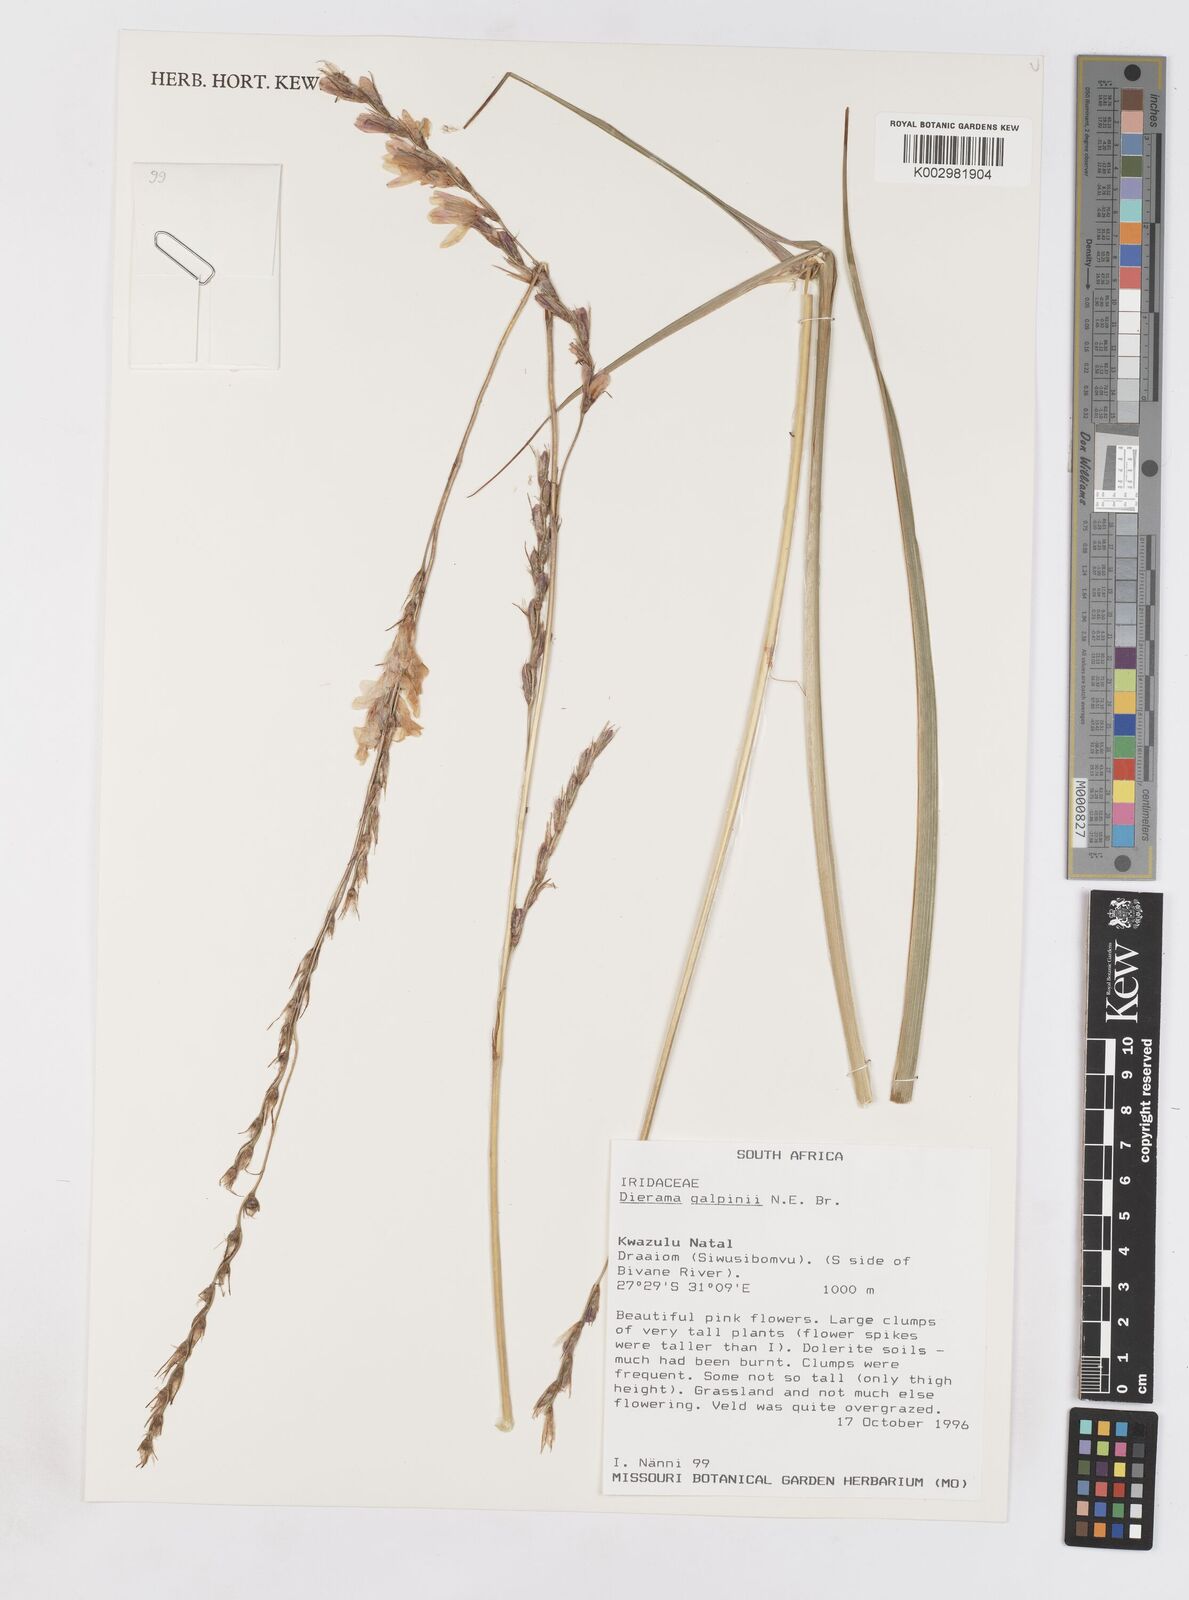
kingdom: Plantae
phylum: Tracheophyta
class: Liliopsida
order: Asparagales
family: Iridaceae
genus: Dierama
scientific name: Dierama galpinii
